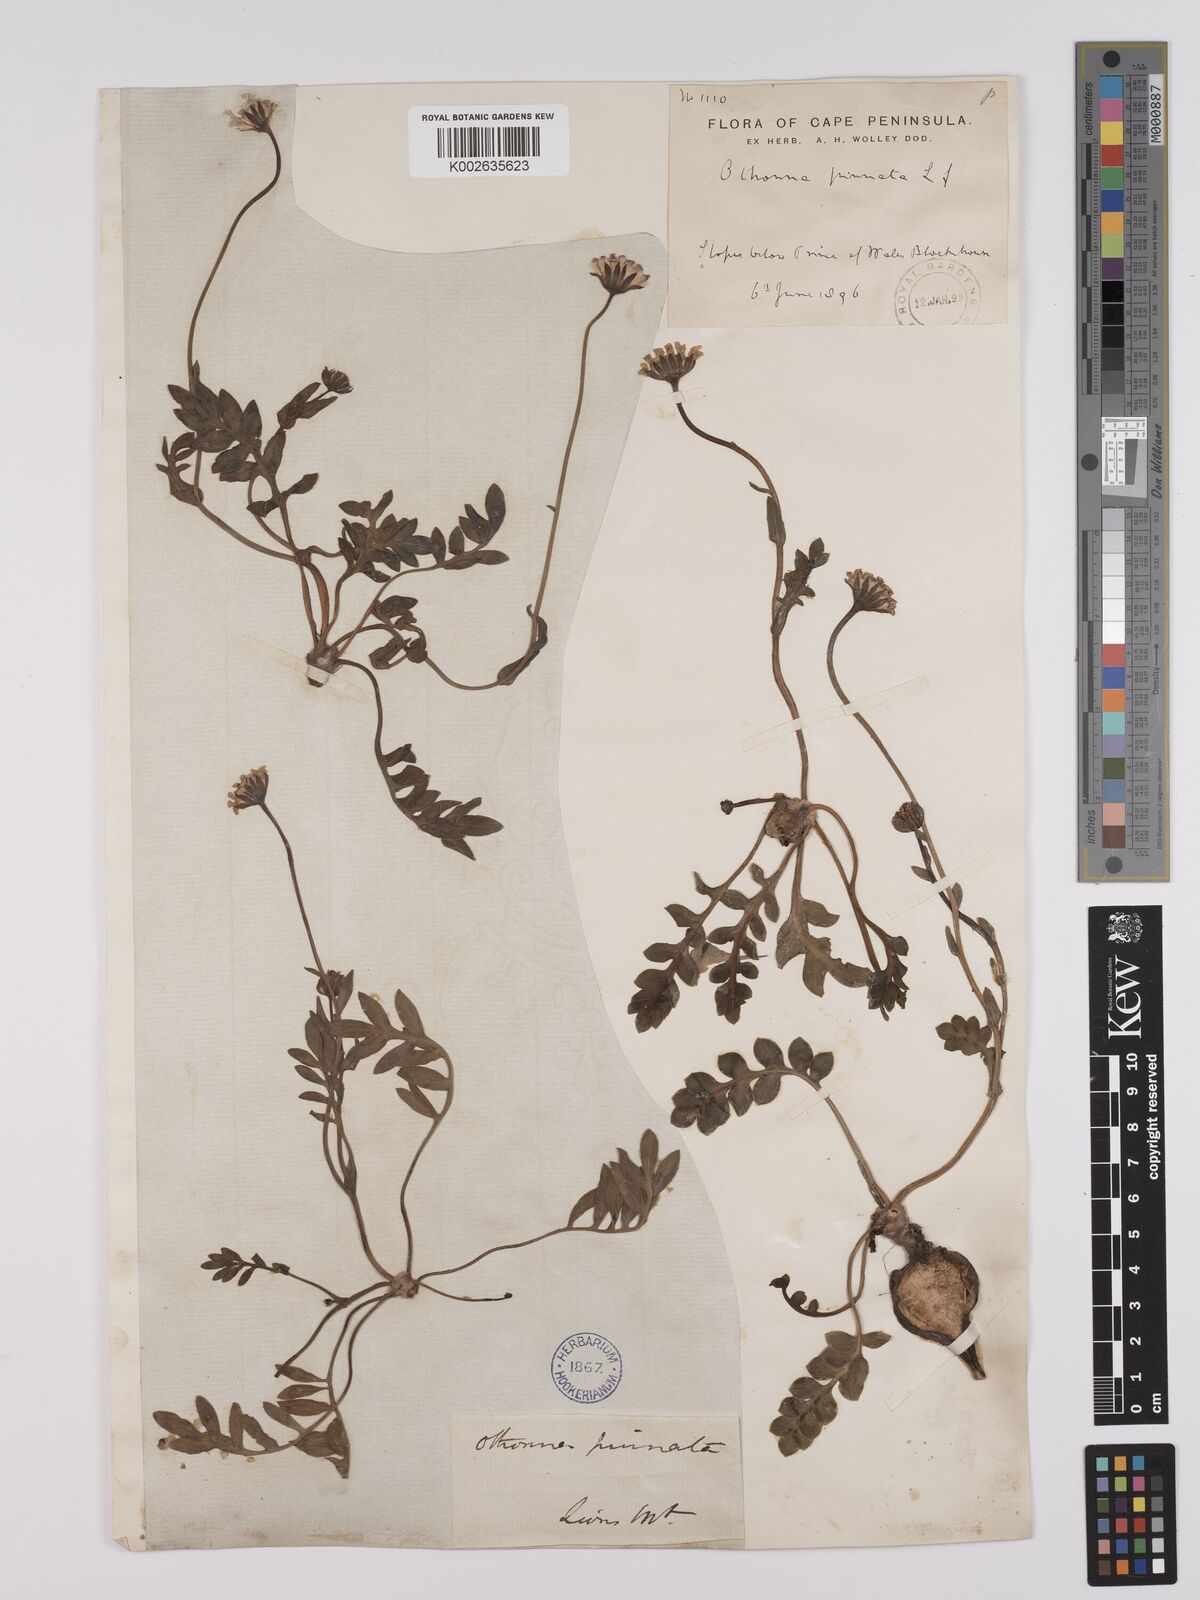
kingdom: Plantae
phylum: Tracheophyta
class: Magnoliopsida
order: Asterales
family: Asteraceae
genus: Othonna
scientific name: Othonna pinnata
